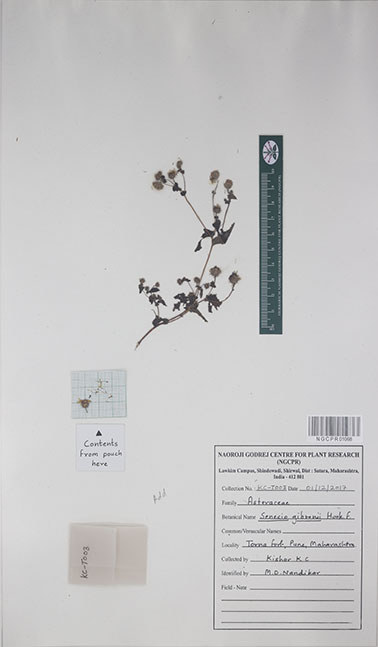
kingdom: Plantae
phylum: Tracheophyta
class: Magnoliopsida
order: Asterales
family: Asteraceae
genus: Senecio
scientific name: Senecio gibsonii
